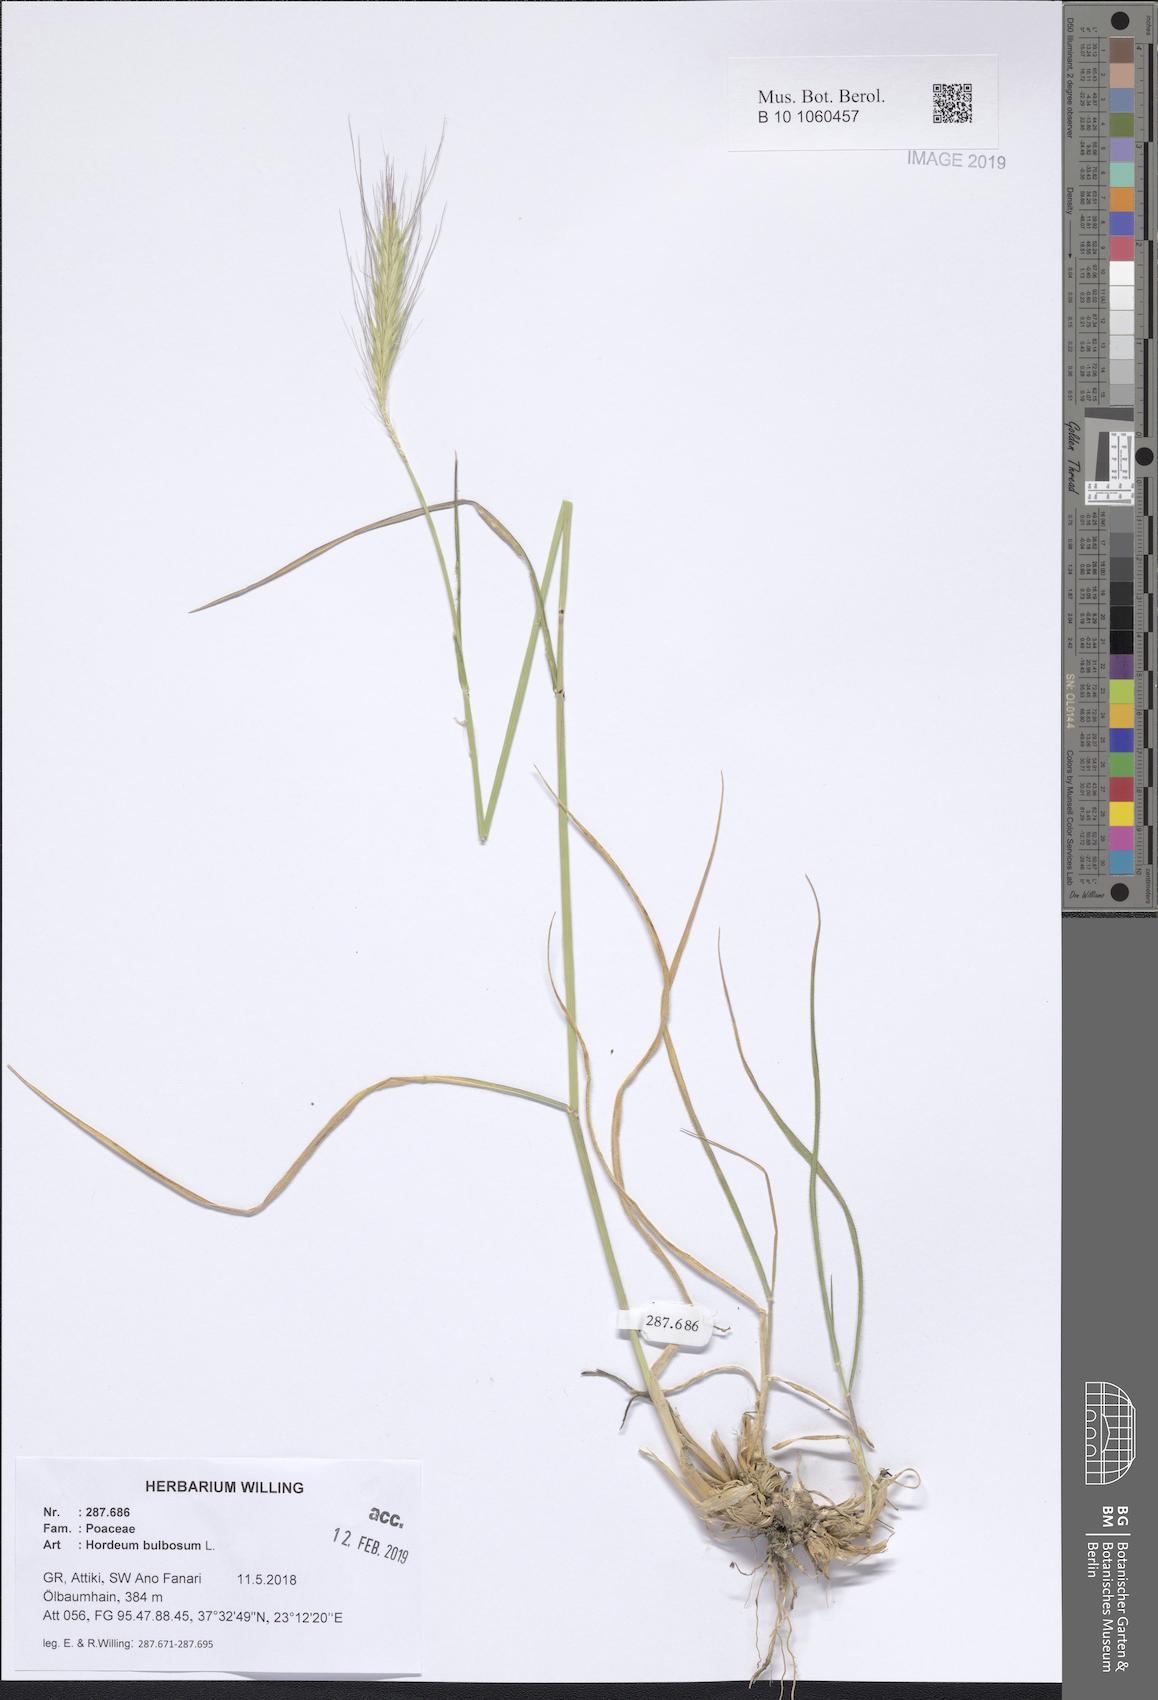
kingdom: Plantae
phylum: Tracheophyta
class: Liliopsida
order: Poales
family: Poaceae
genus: Hordeum
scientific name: Hordeum bulbosum
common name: Bulbous barley
